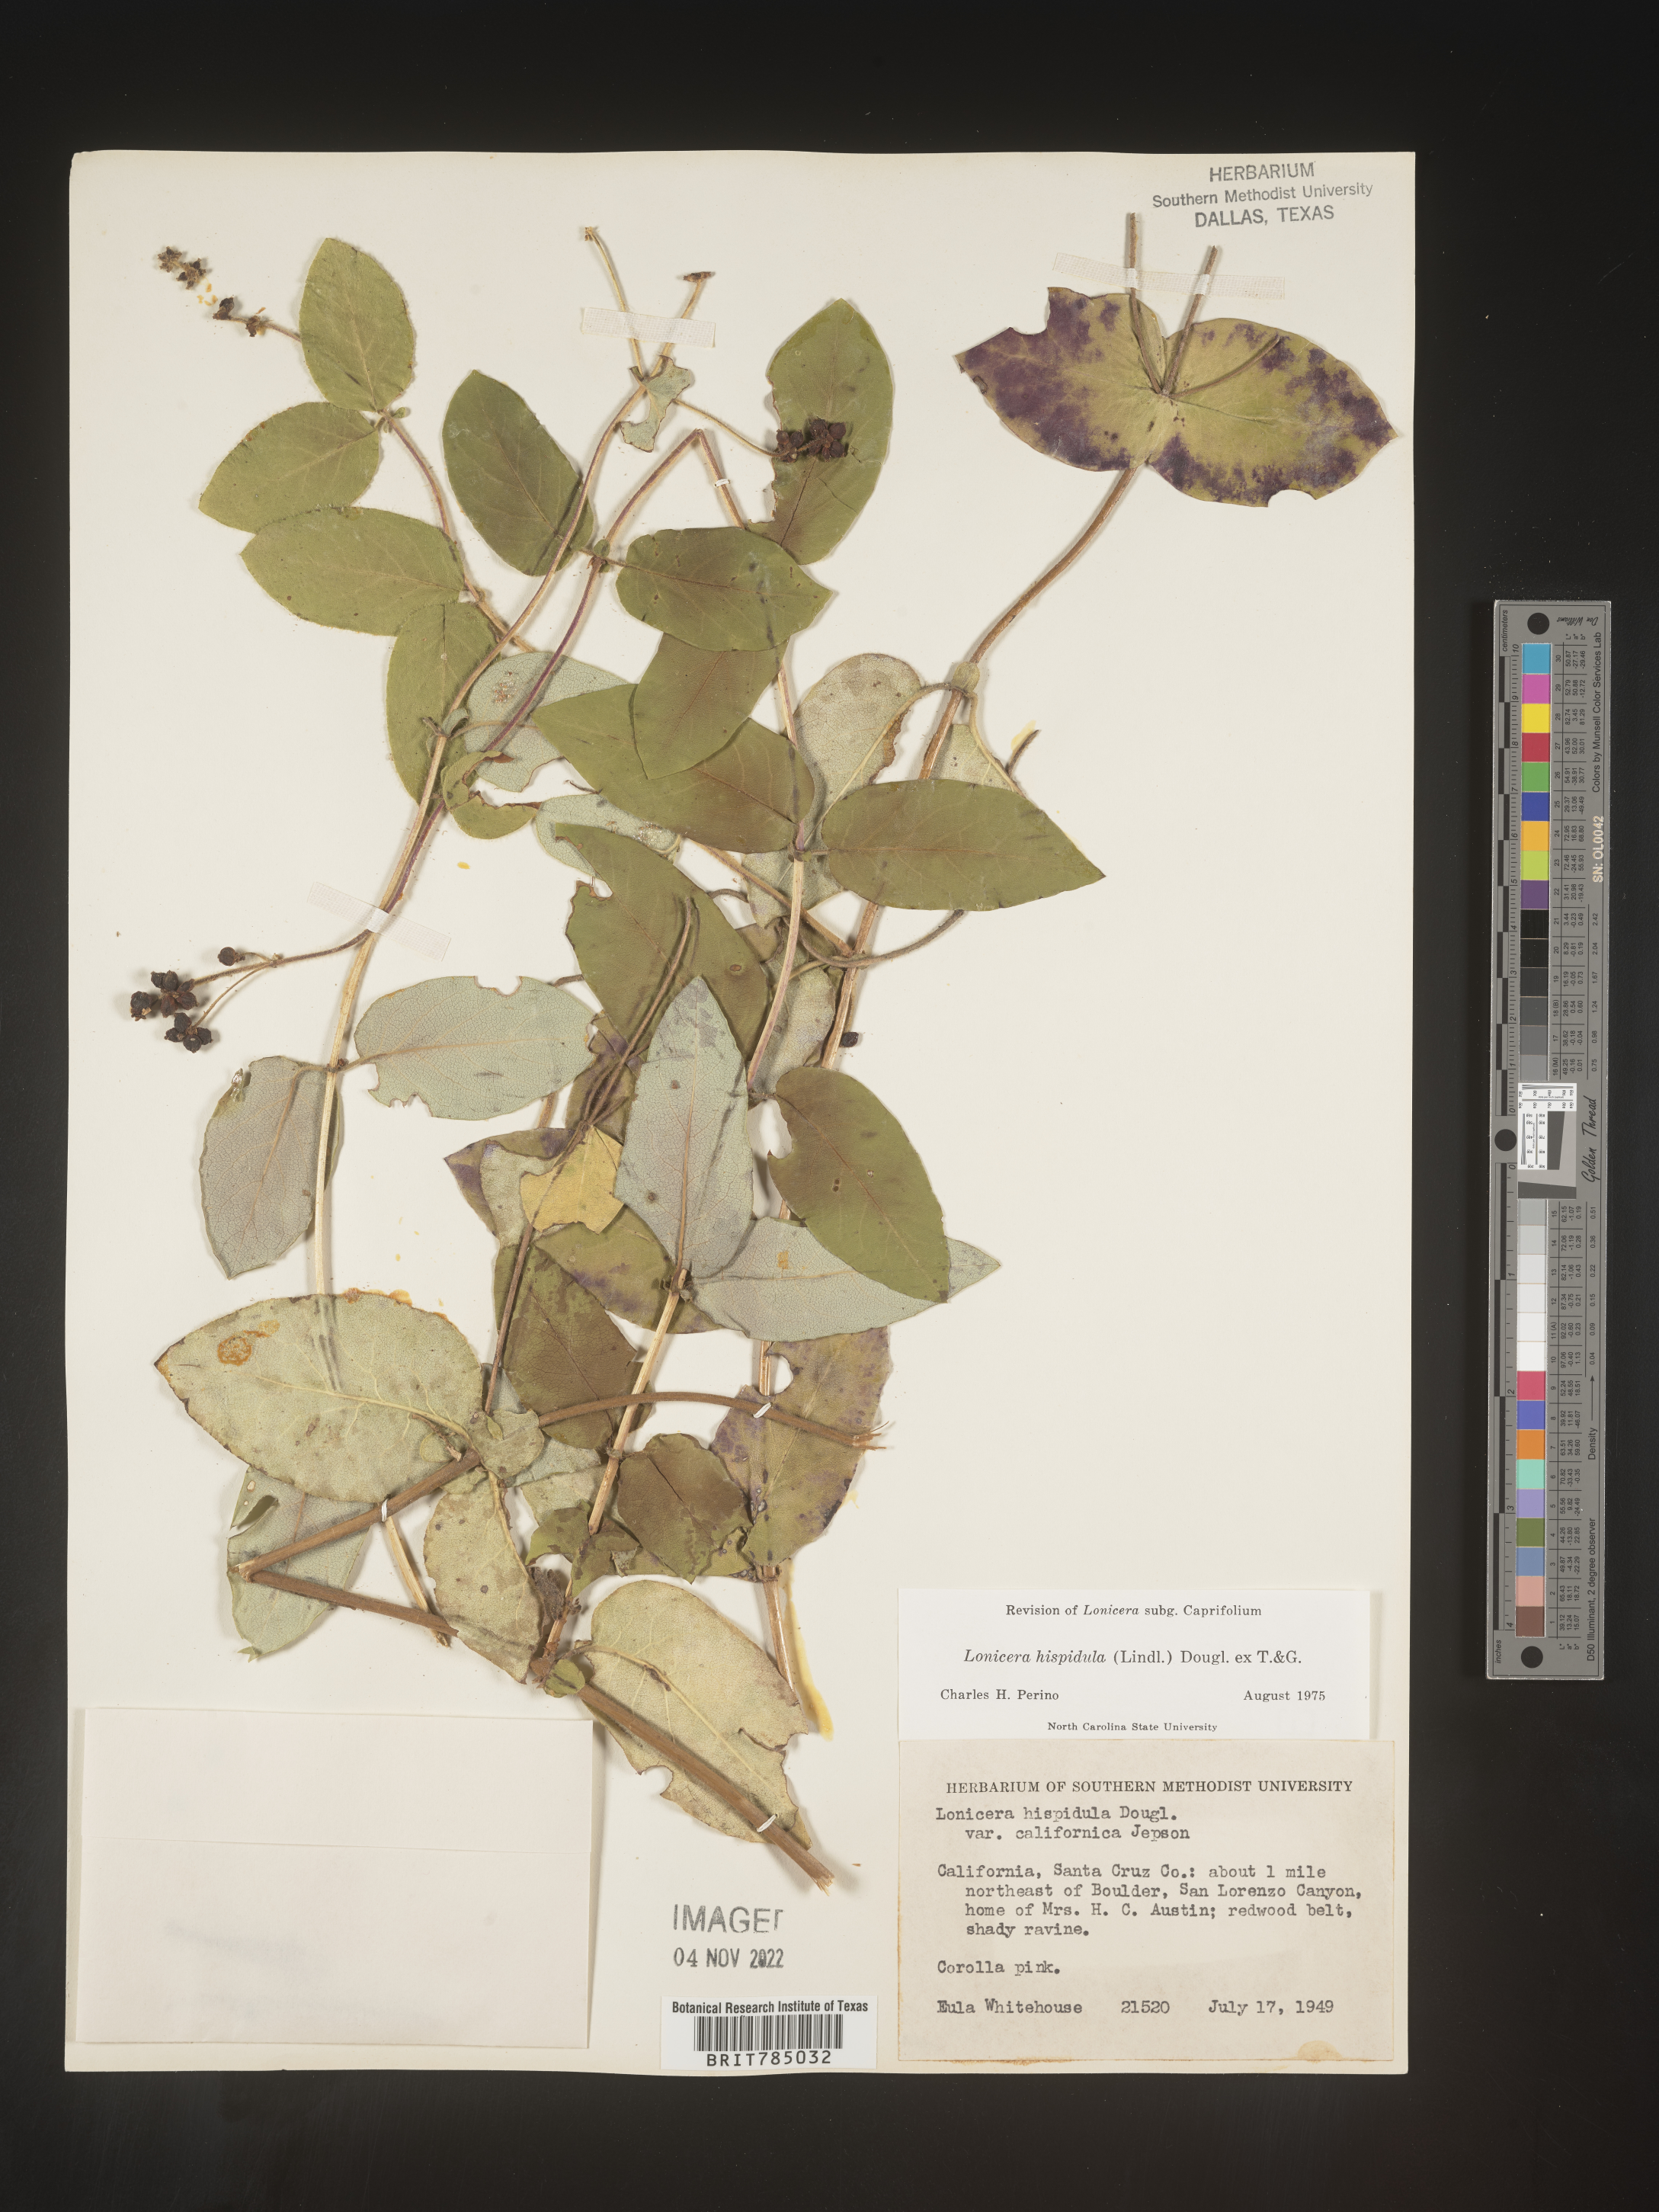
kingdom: Plantae
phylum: Tracheophyta
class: Magnoliopsida
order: Dipsacales
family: Caprifoliaceae
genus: Lonicera
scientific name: Lonicera
